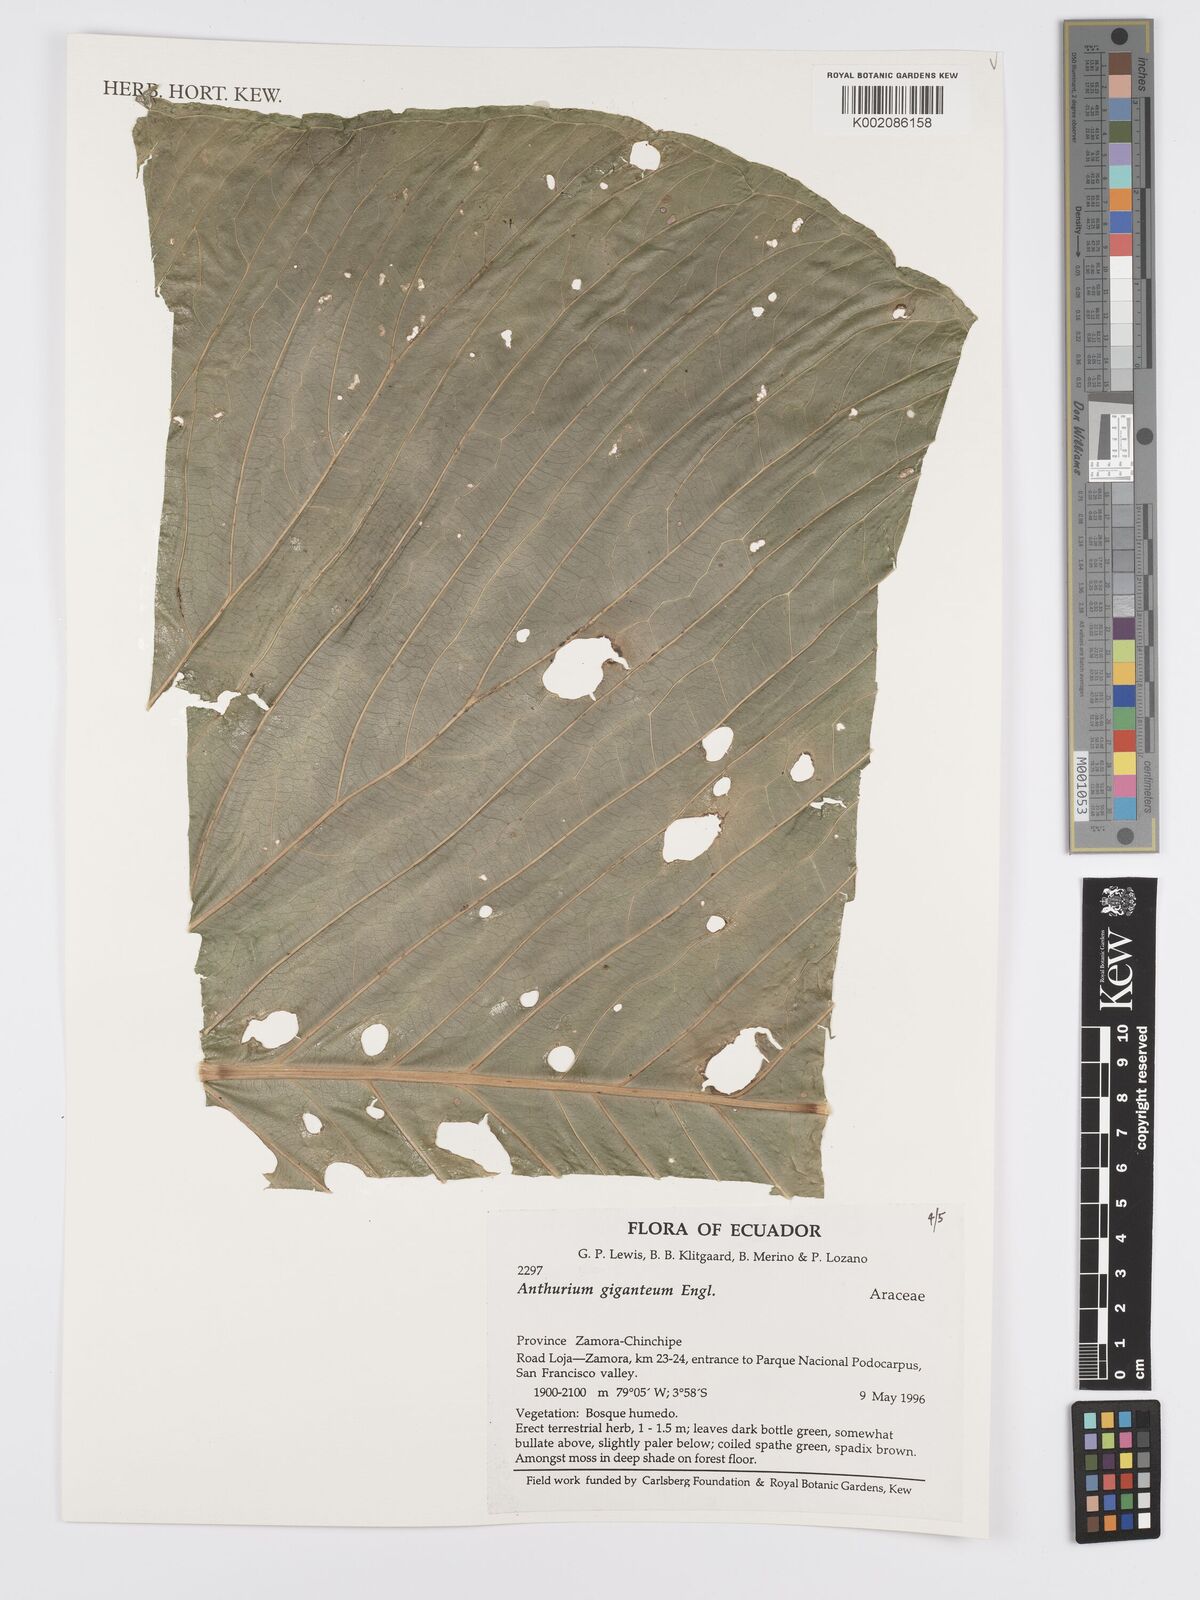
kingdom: Plantae
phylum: Tracheophyta
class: Liliopsida
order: Alismatales
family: Araceae
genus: Anthurium
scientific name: Anthurium giganteum
